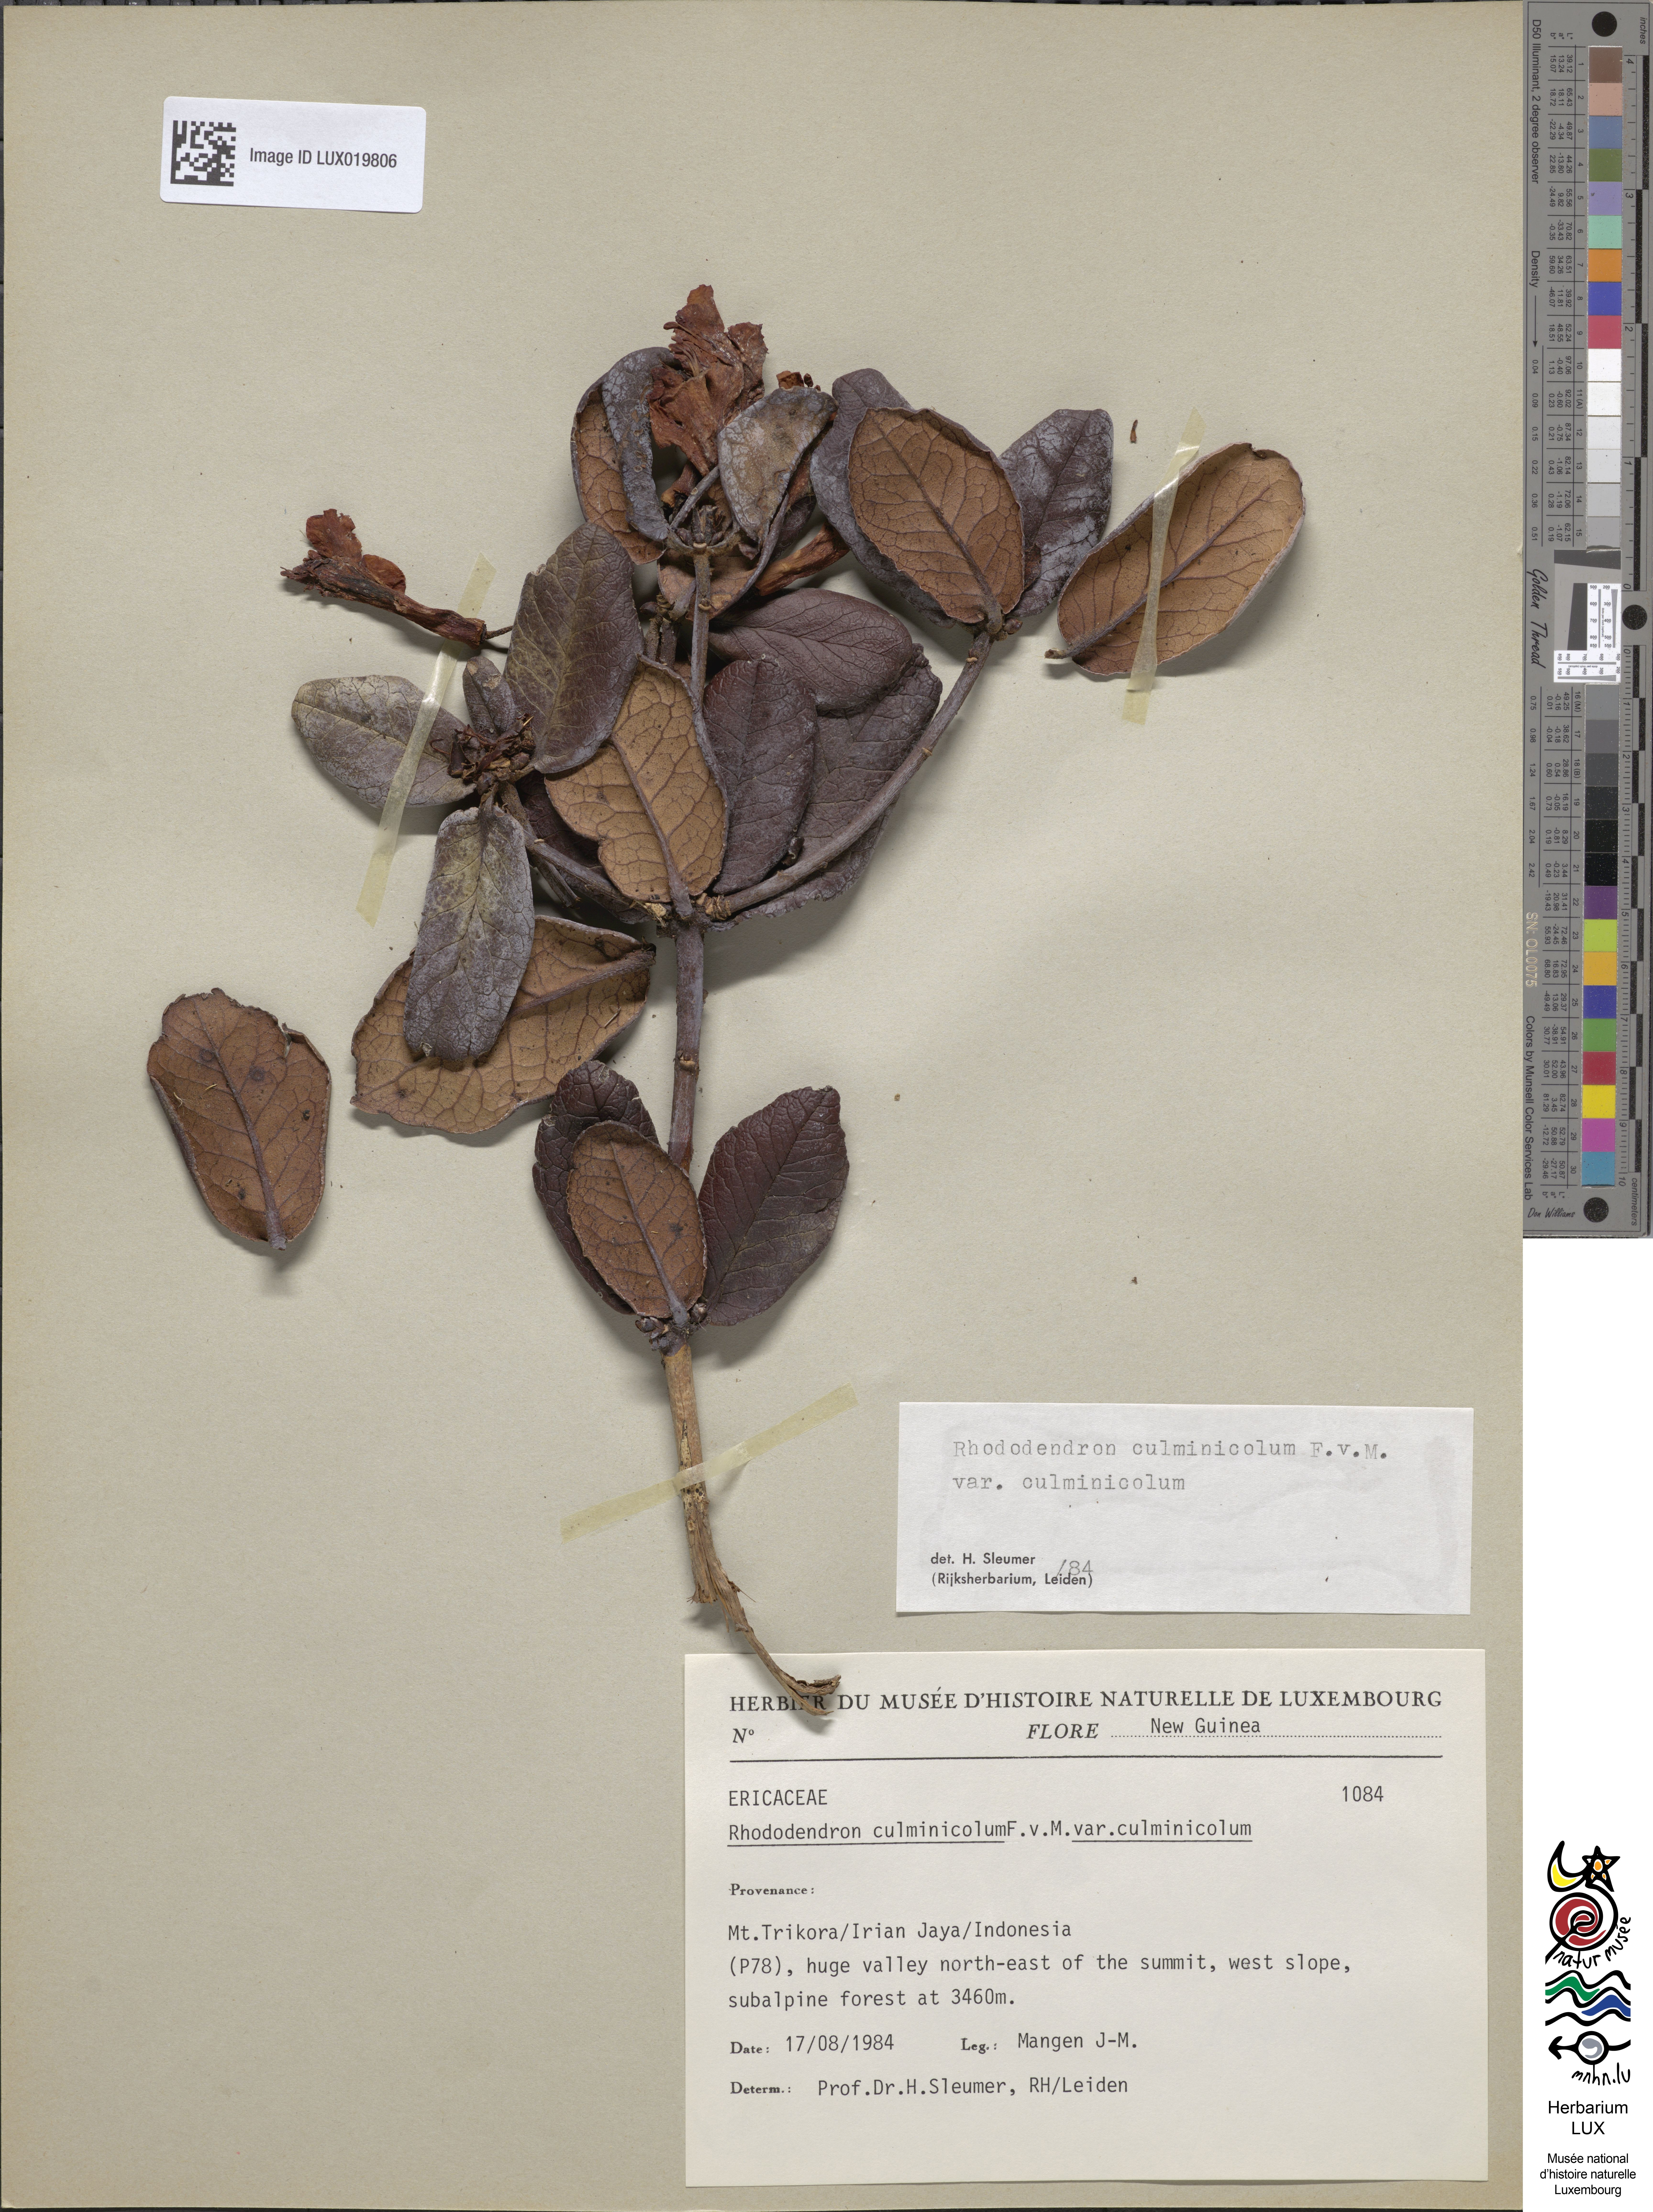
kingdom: Plantae
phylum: Tracheophyta
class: Magnoliopsida
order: Ericales
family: Ericaceae
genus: Rhododendron
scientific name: Rhododendron culminicola
